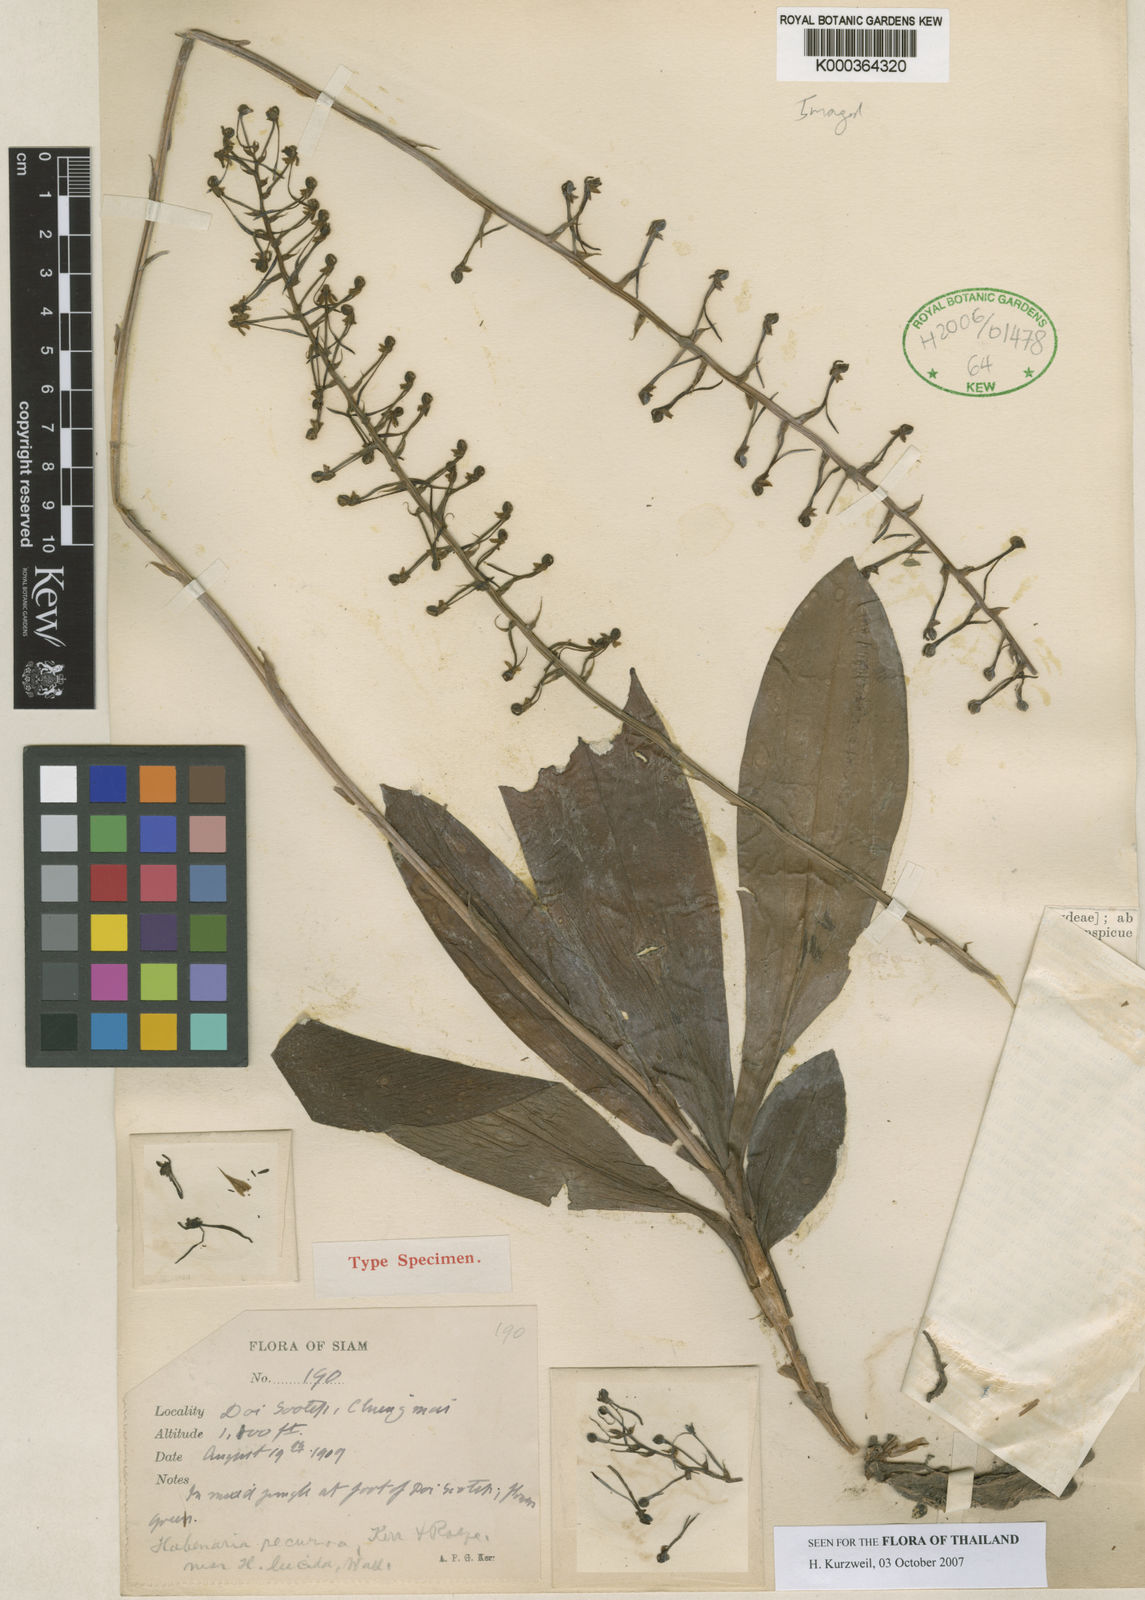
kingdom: Plantae
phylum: Tracheophyta
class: Liliopsida
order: Asparagales
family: Orchidaceae
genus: Habenaria
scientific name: Habenaria lucida
